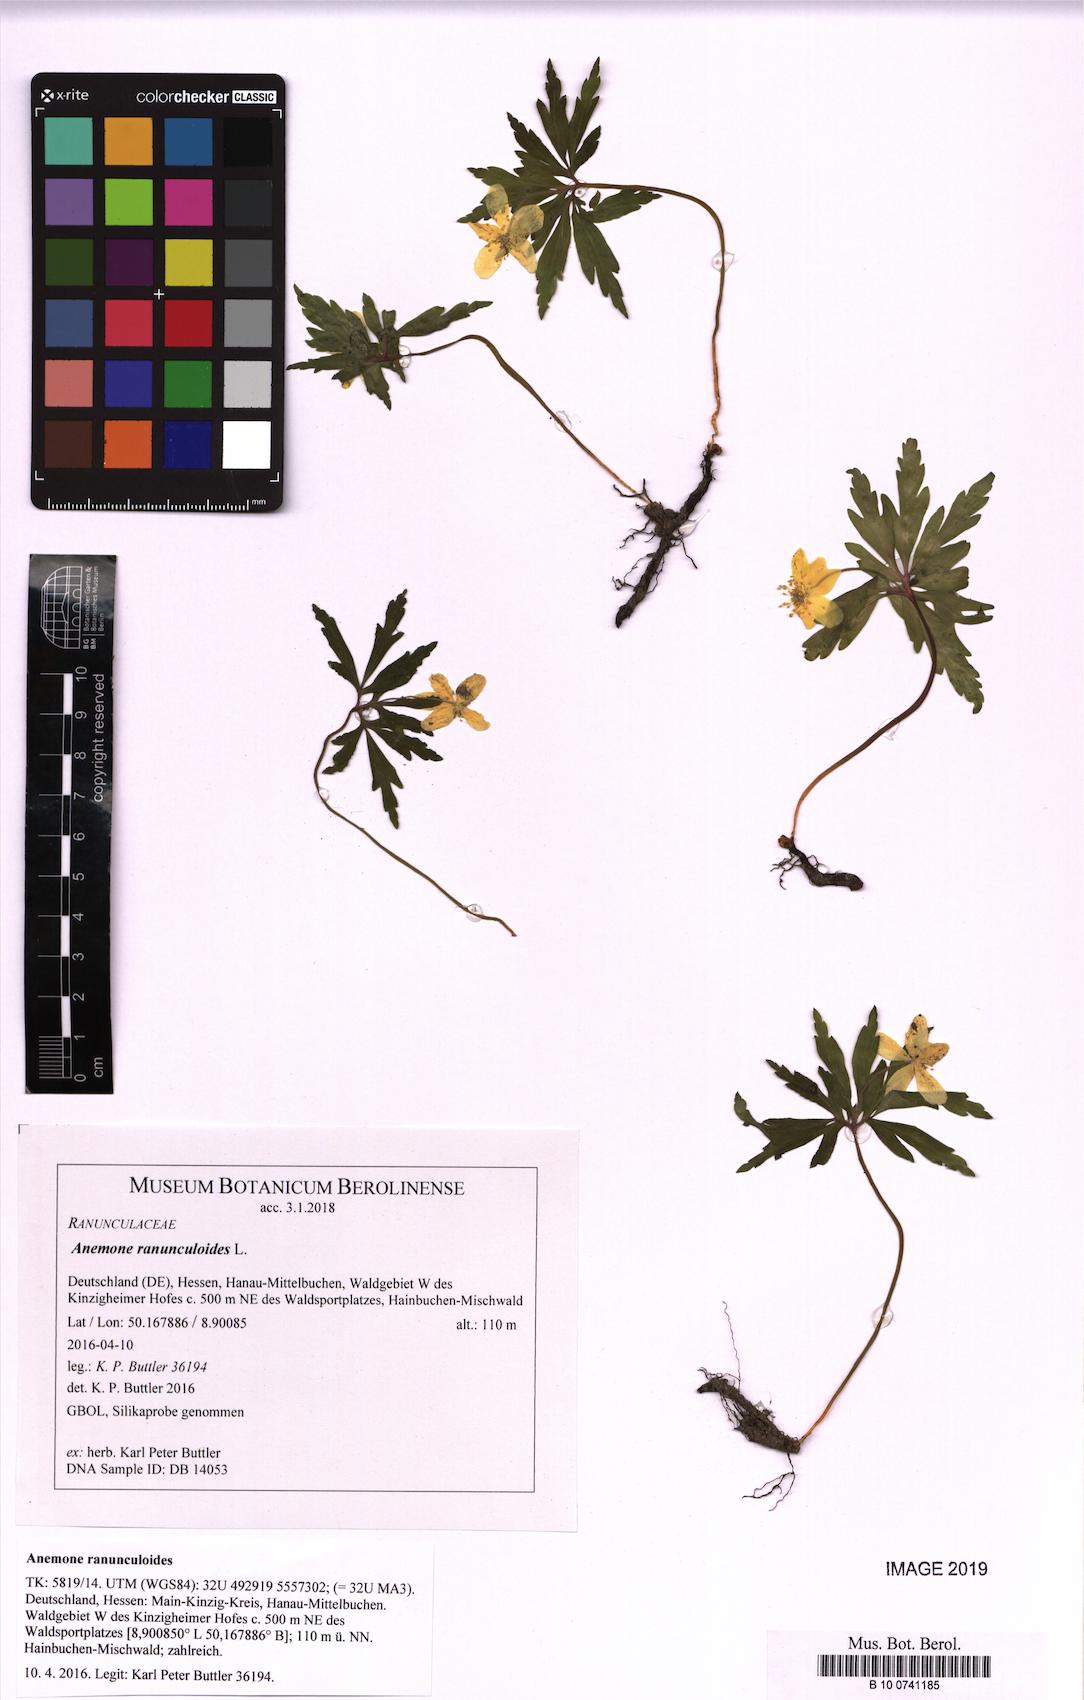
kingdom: Plantae
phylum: Tracheophyta
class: Magnoliopsida
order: Ranunculales
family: Ranunculaceae
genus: Anemone
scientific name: Anemone ranunculoides
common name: Yellow anemone
